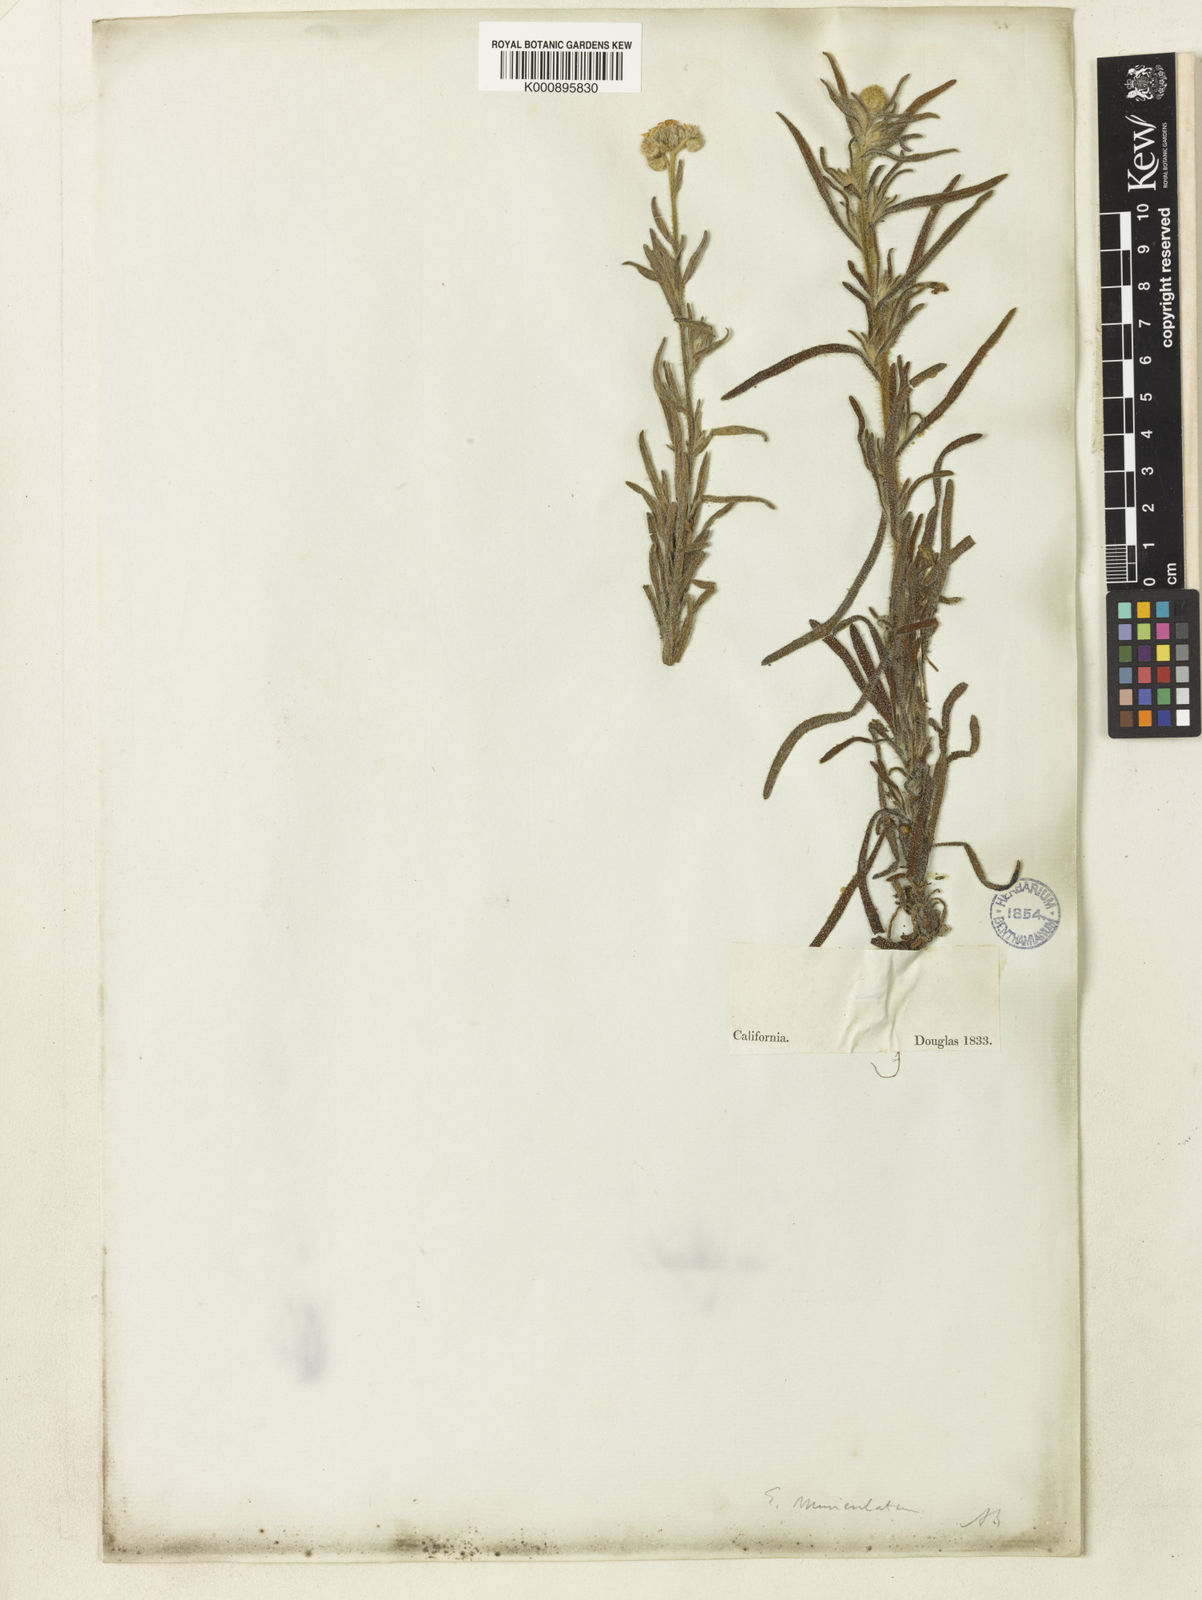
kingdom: Plantae
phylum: Tracheophyta
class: Magnoliopsida
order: Boraginales
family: Boraginaceae
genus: Cryptantha
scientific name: Cryptantha muricata
